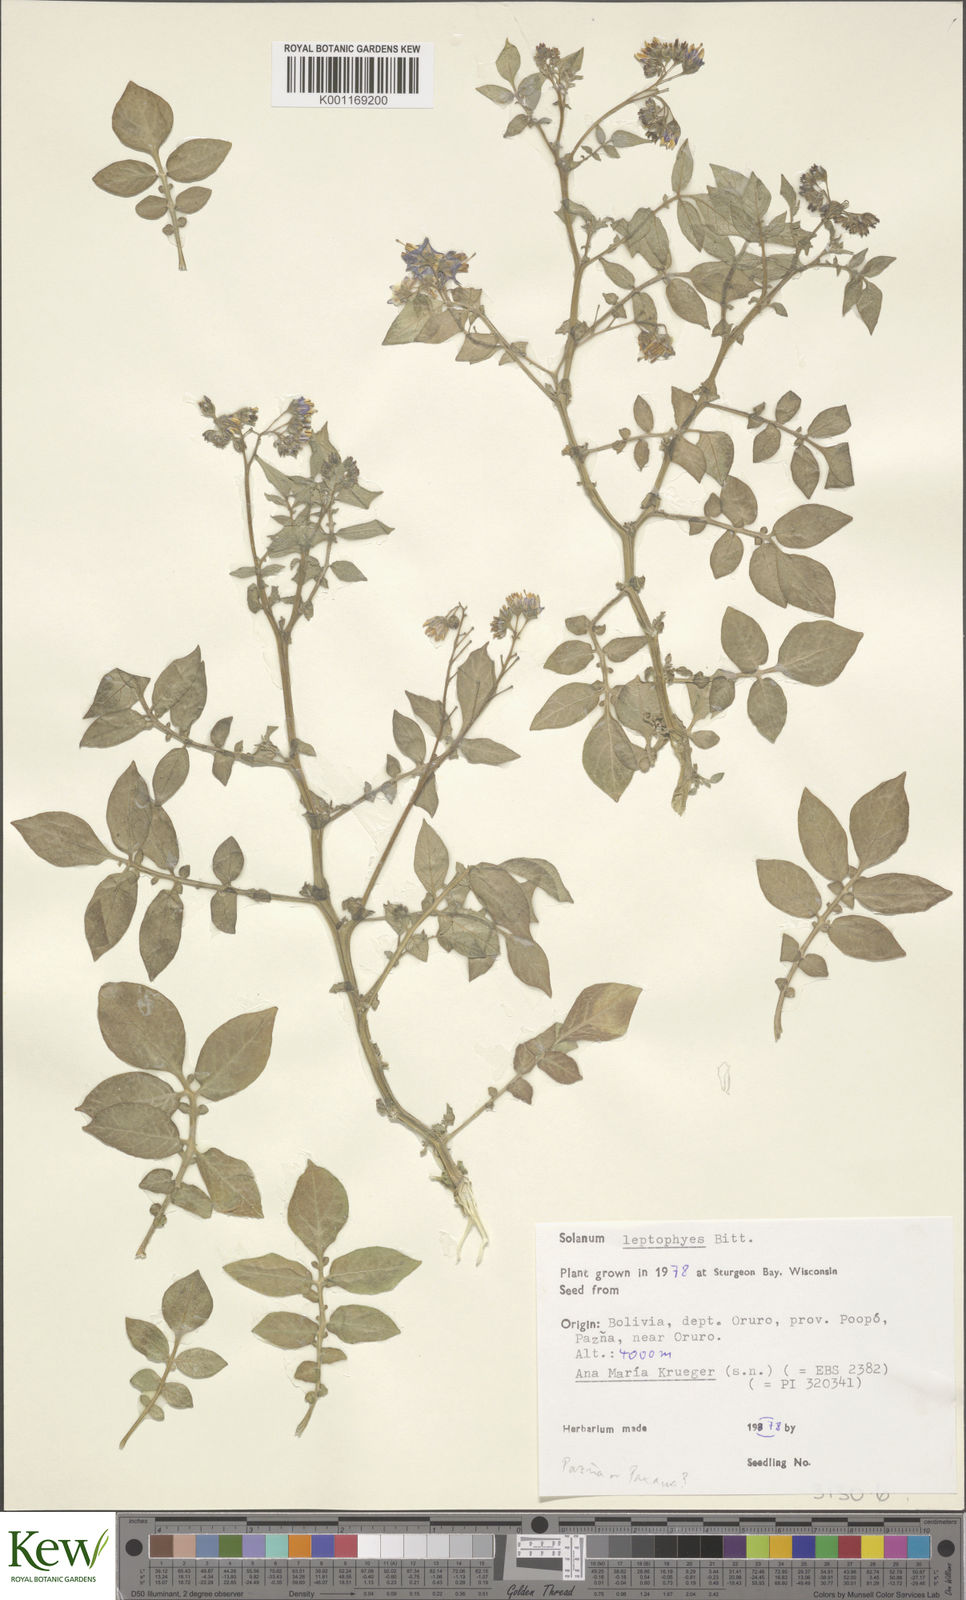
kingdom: Plantae
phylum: Tracheophyta
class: Magnoliopsida
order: Solanales
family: Solanaceae
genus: Solanum
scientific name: Solanum brevicaule
